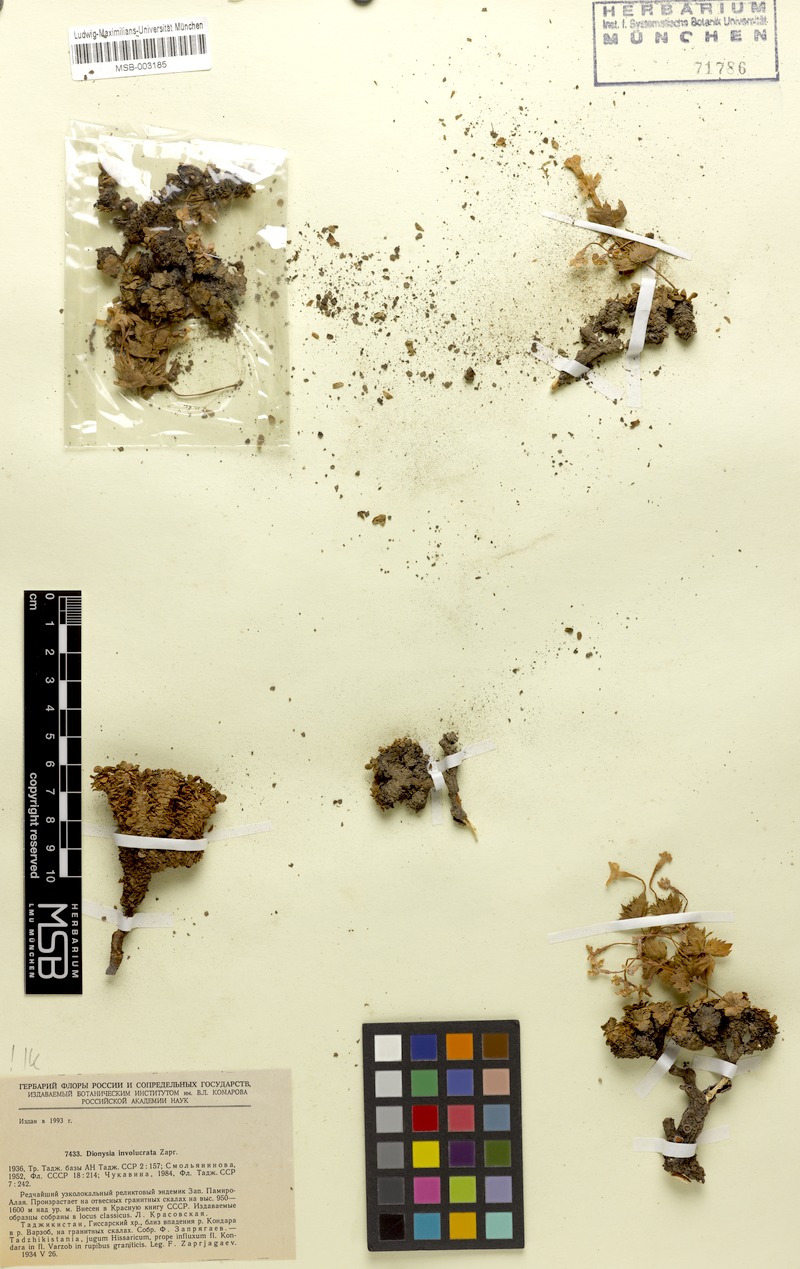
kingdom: Plantae
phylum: Tracheophyta
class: Magnoliopsida
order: Ericales
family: Primulaceae
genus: Dionysia
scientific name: Dionysia involucrata
